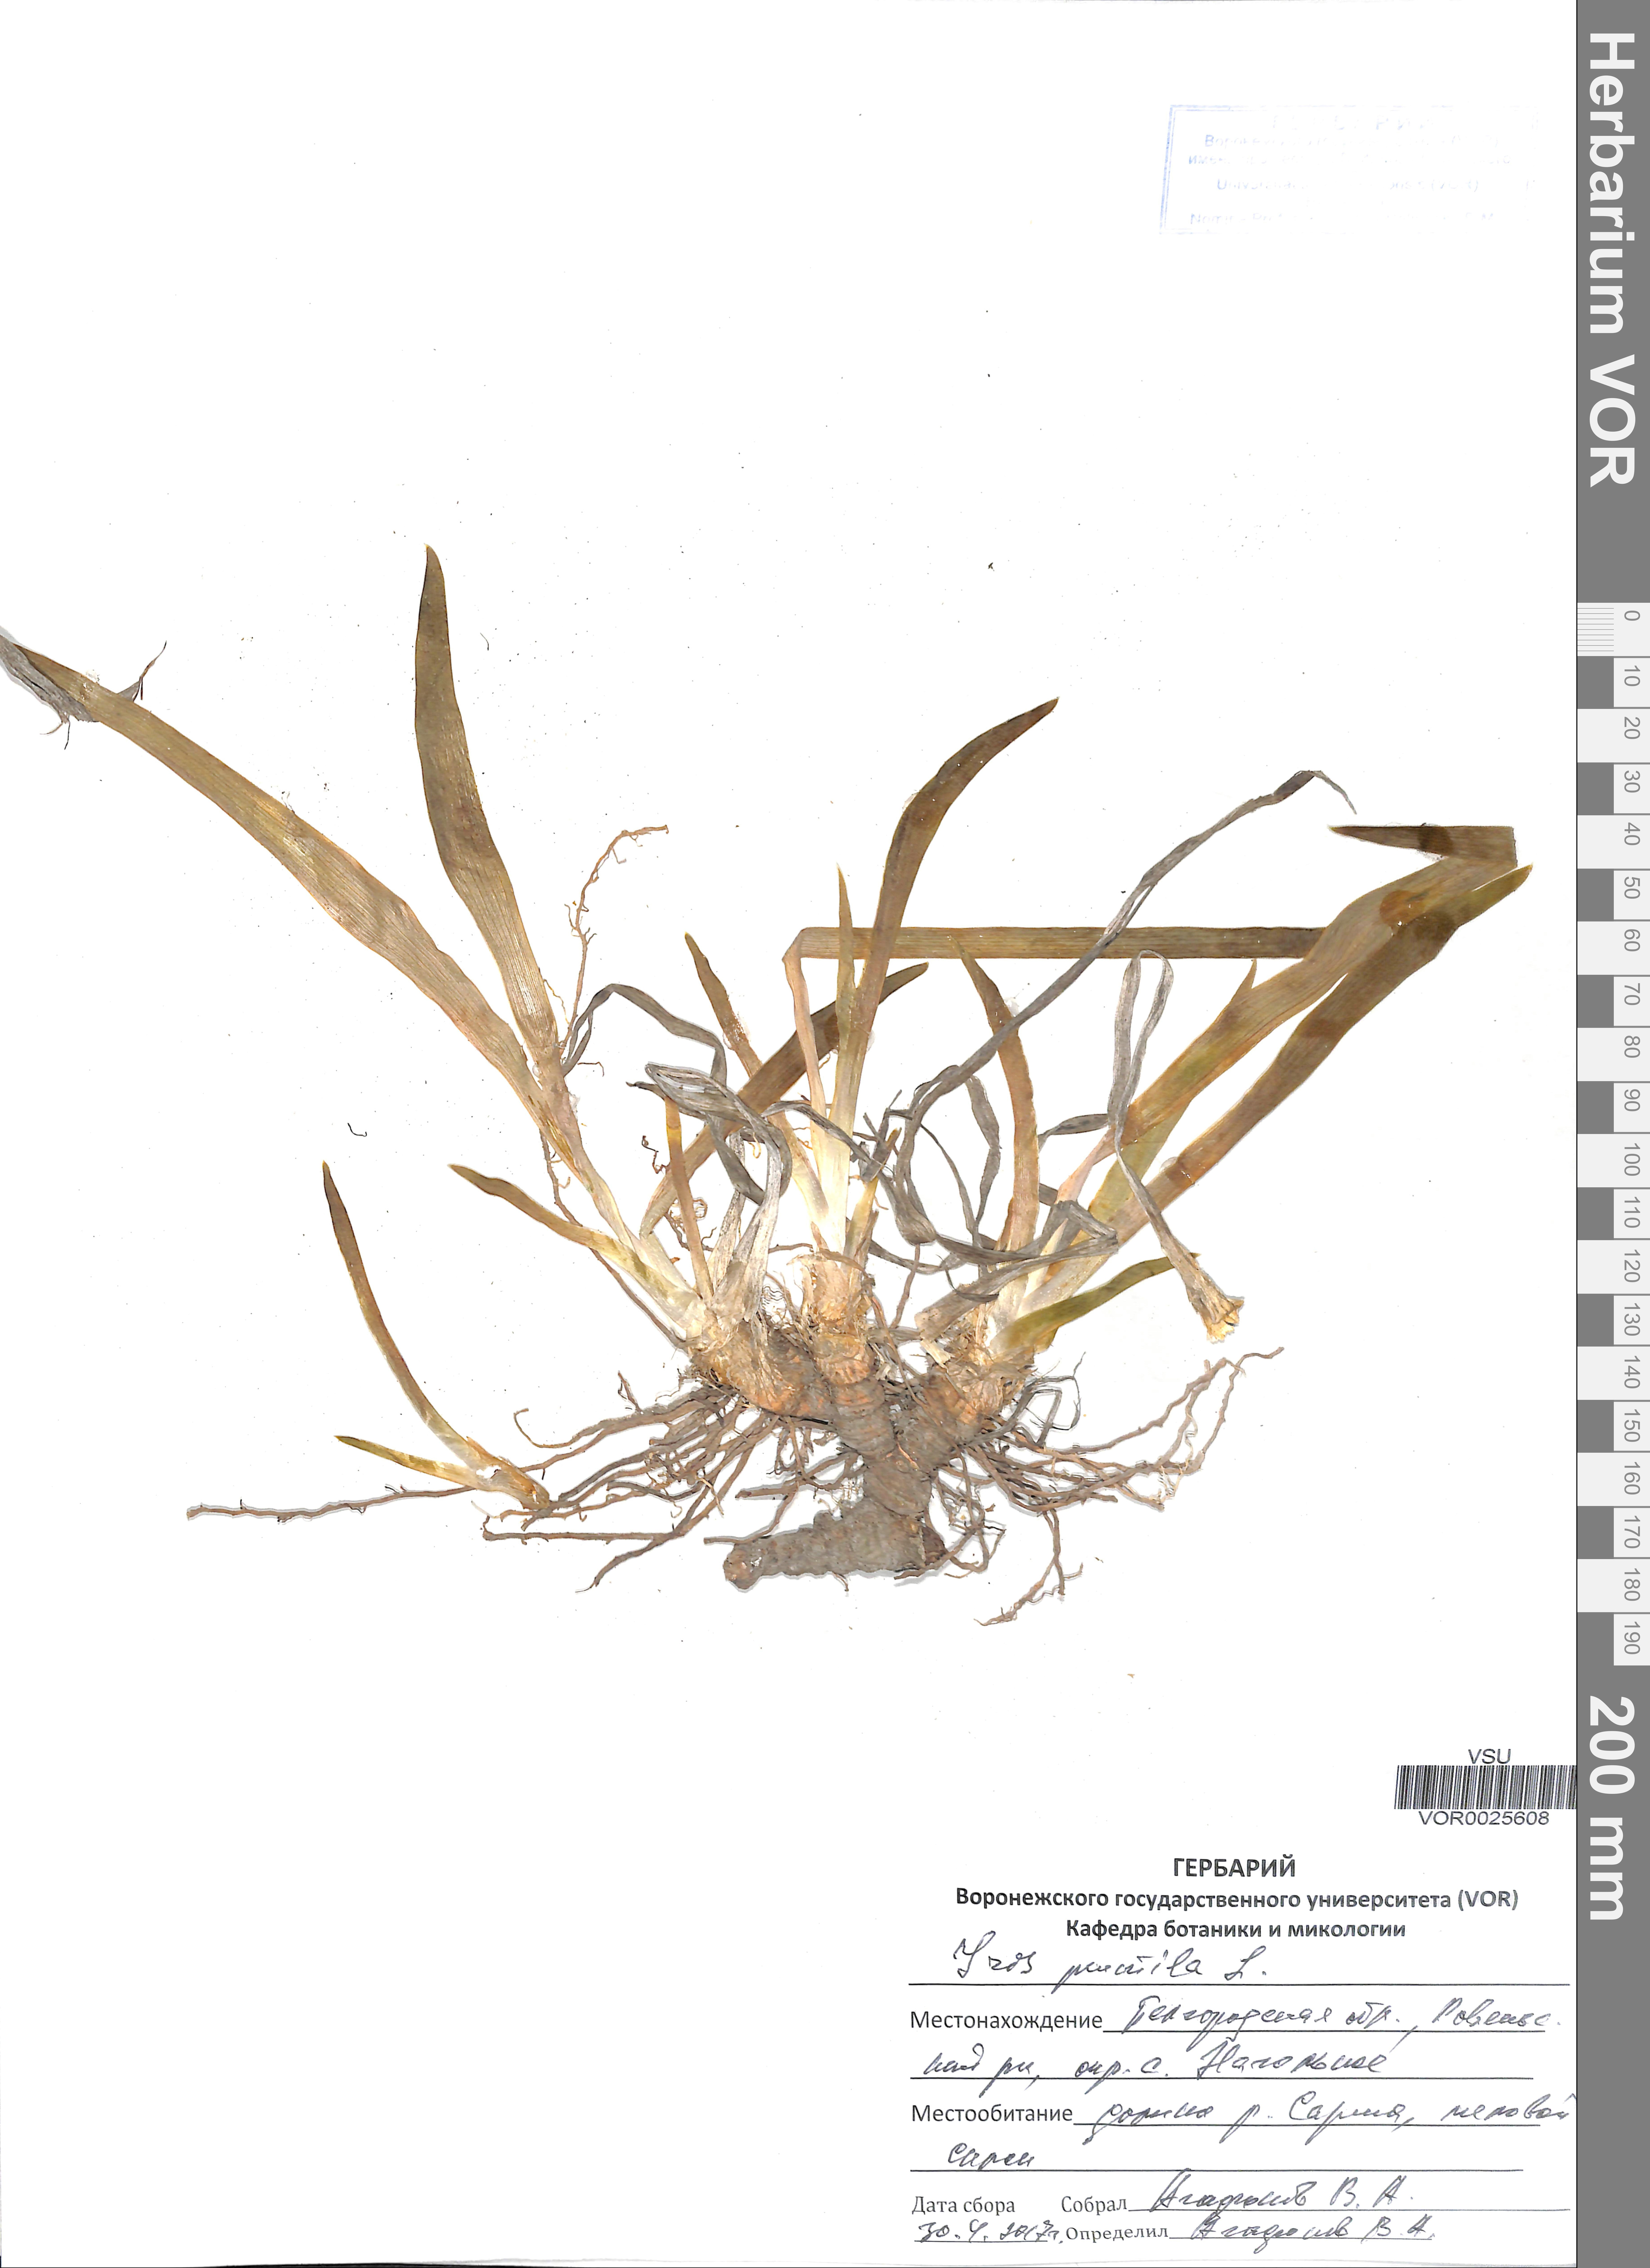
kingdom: Plantae
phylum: Tracheophyta
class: Liliopsida
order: Asparagales
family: Iridaceae
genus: Iris
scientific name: Iris pumila
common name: Dwarf iris
